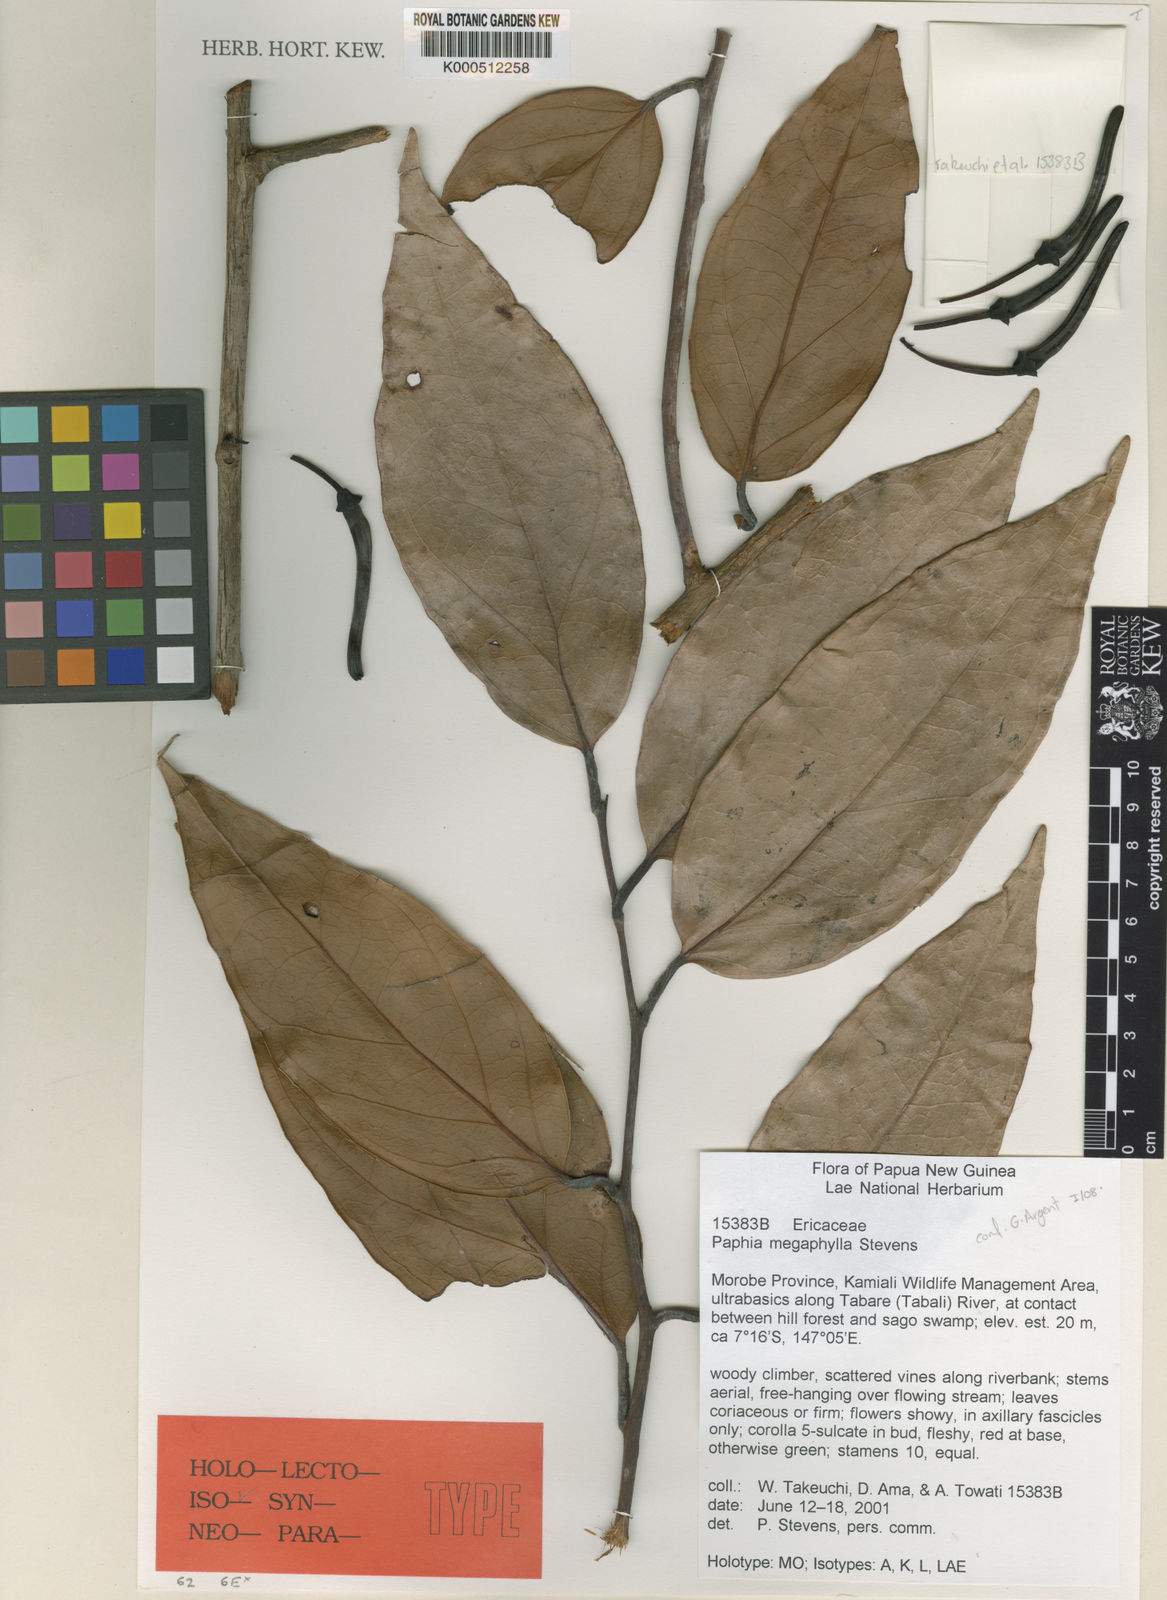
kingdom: Plantae
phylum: Tracheophyta
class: Magnoliopsida
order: Ericales
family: Ericaceae
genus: Paphia
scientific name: Paphia megaphylla
